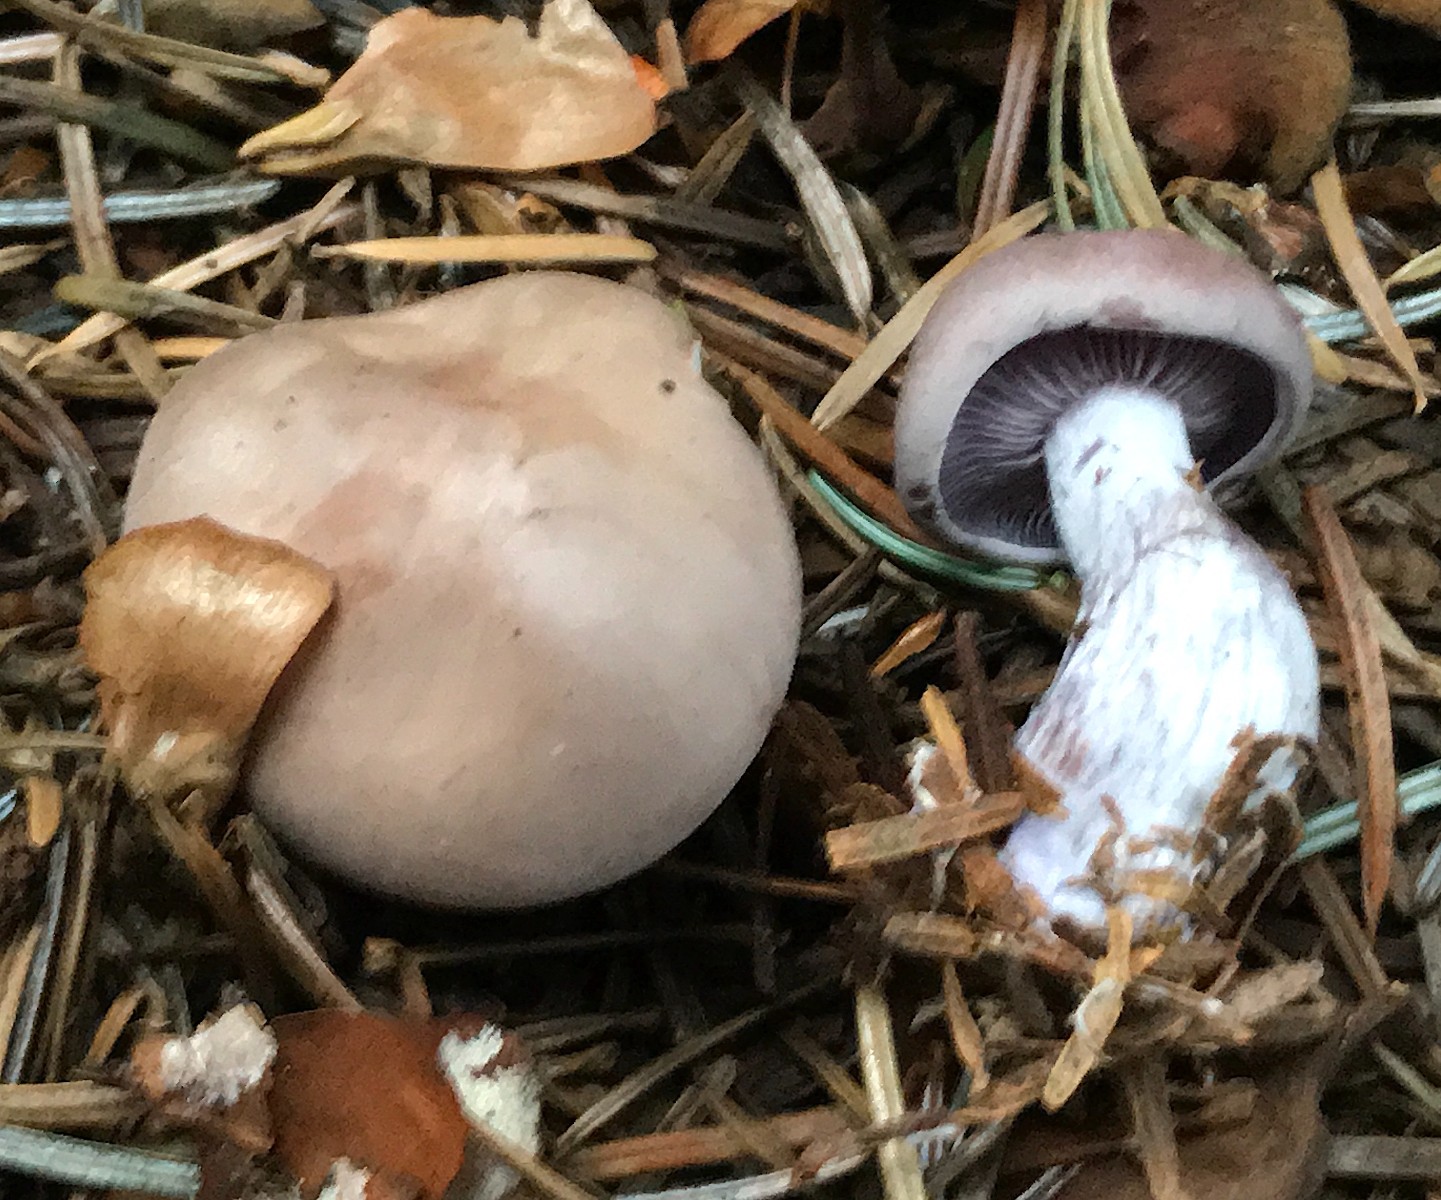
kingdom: Fungi
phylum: Basidiomycota
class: Agaricomycetes
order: Agaricales
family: Tricholomataceae
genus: Lepista
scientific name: Lepista nuda
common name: violet hekseringshat
